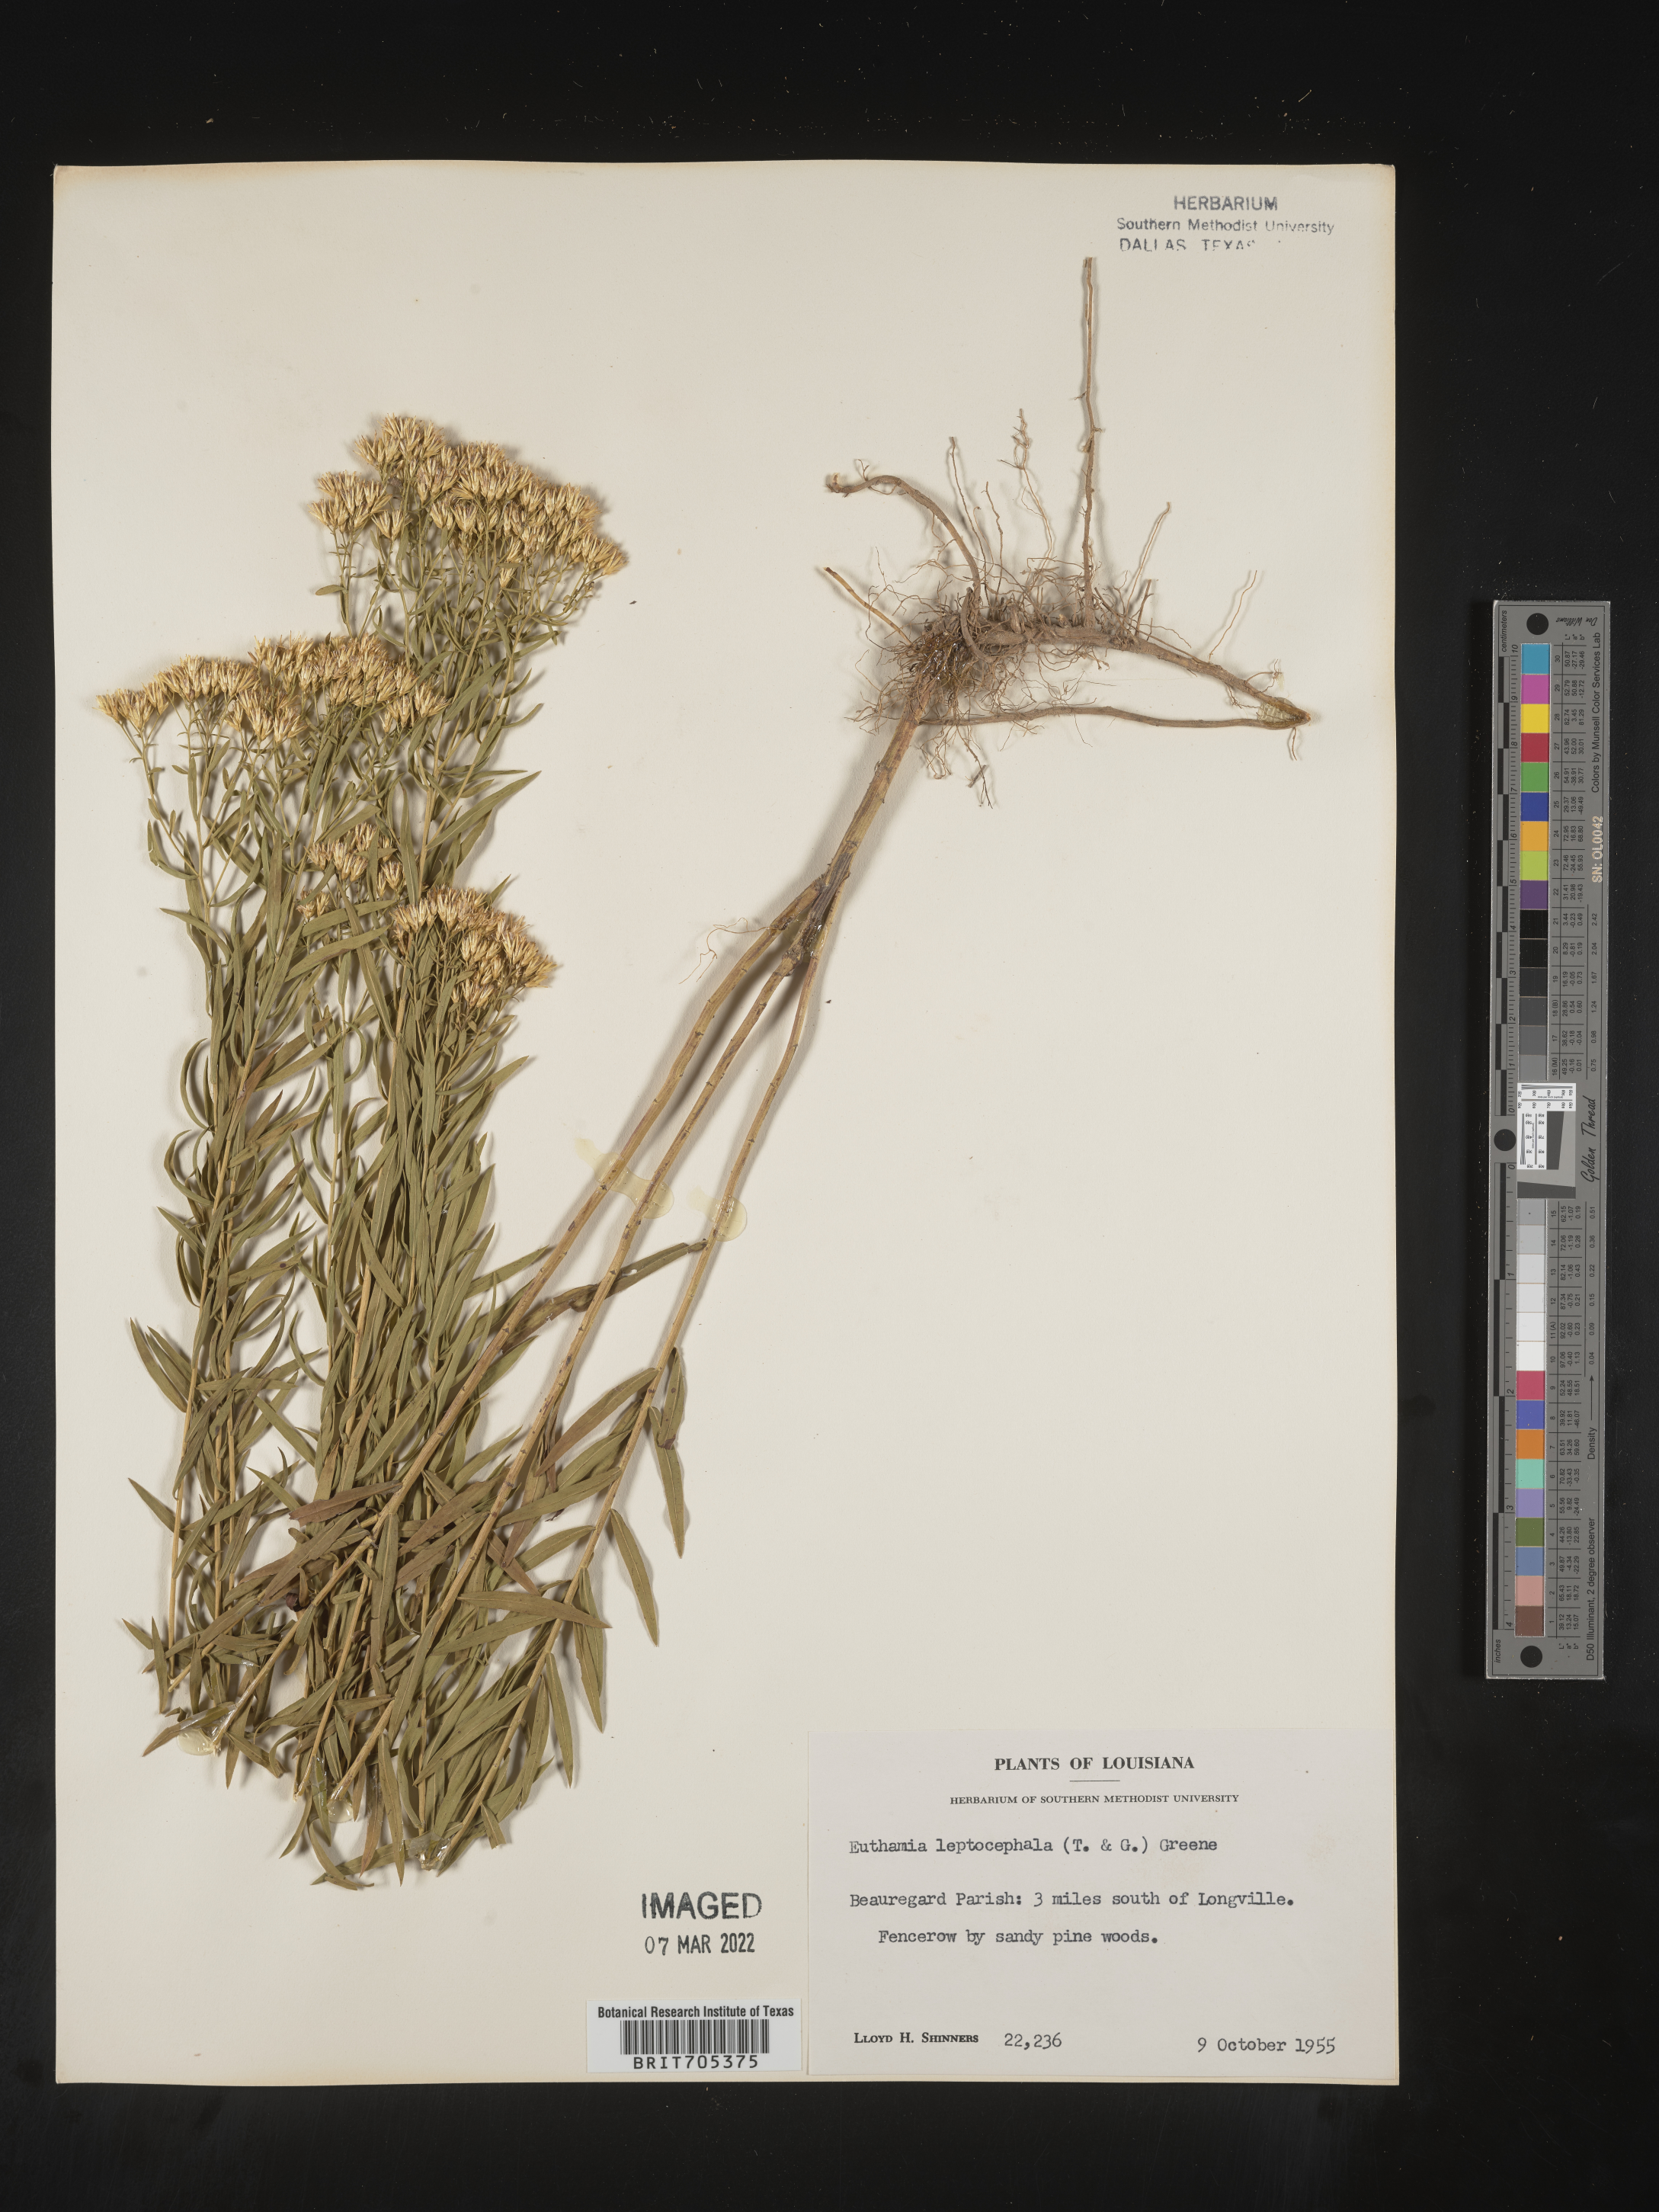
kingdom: Plantae
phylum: Tracheophyta
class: Magnoliopsida
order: Asterales
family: Asteraceae
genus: Euthamia
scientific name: Euthamia leptocephala
